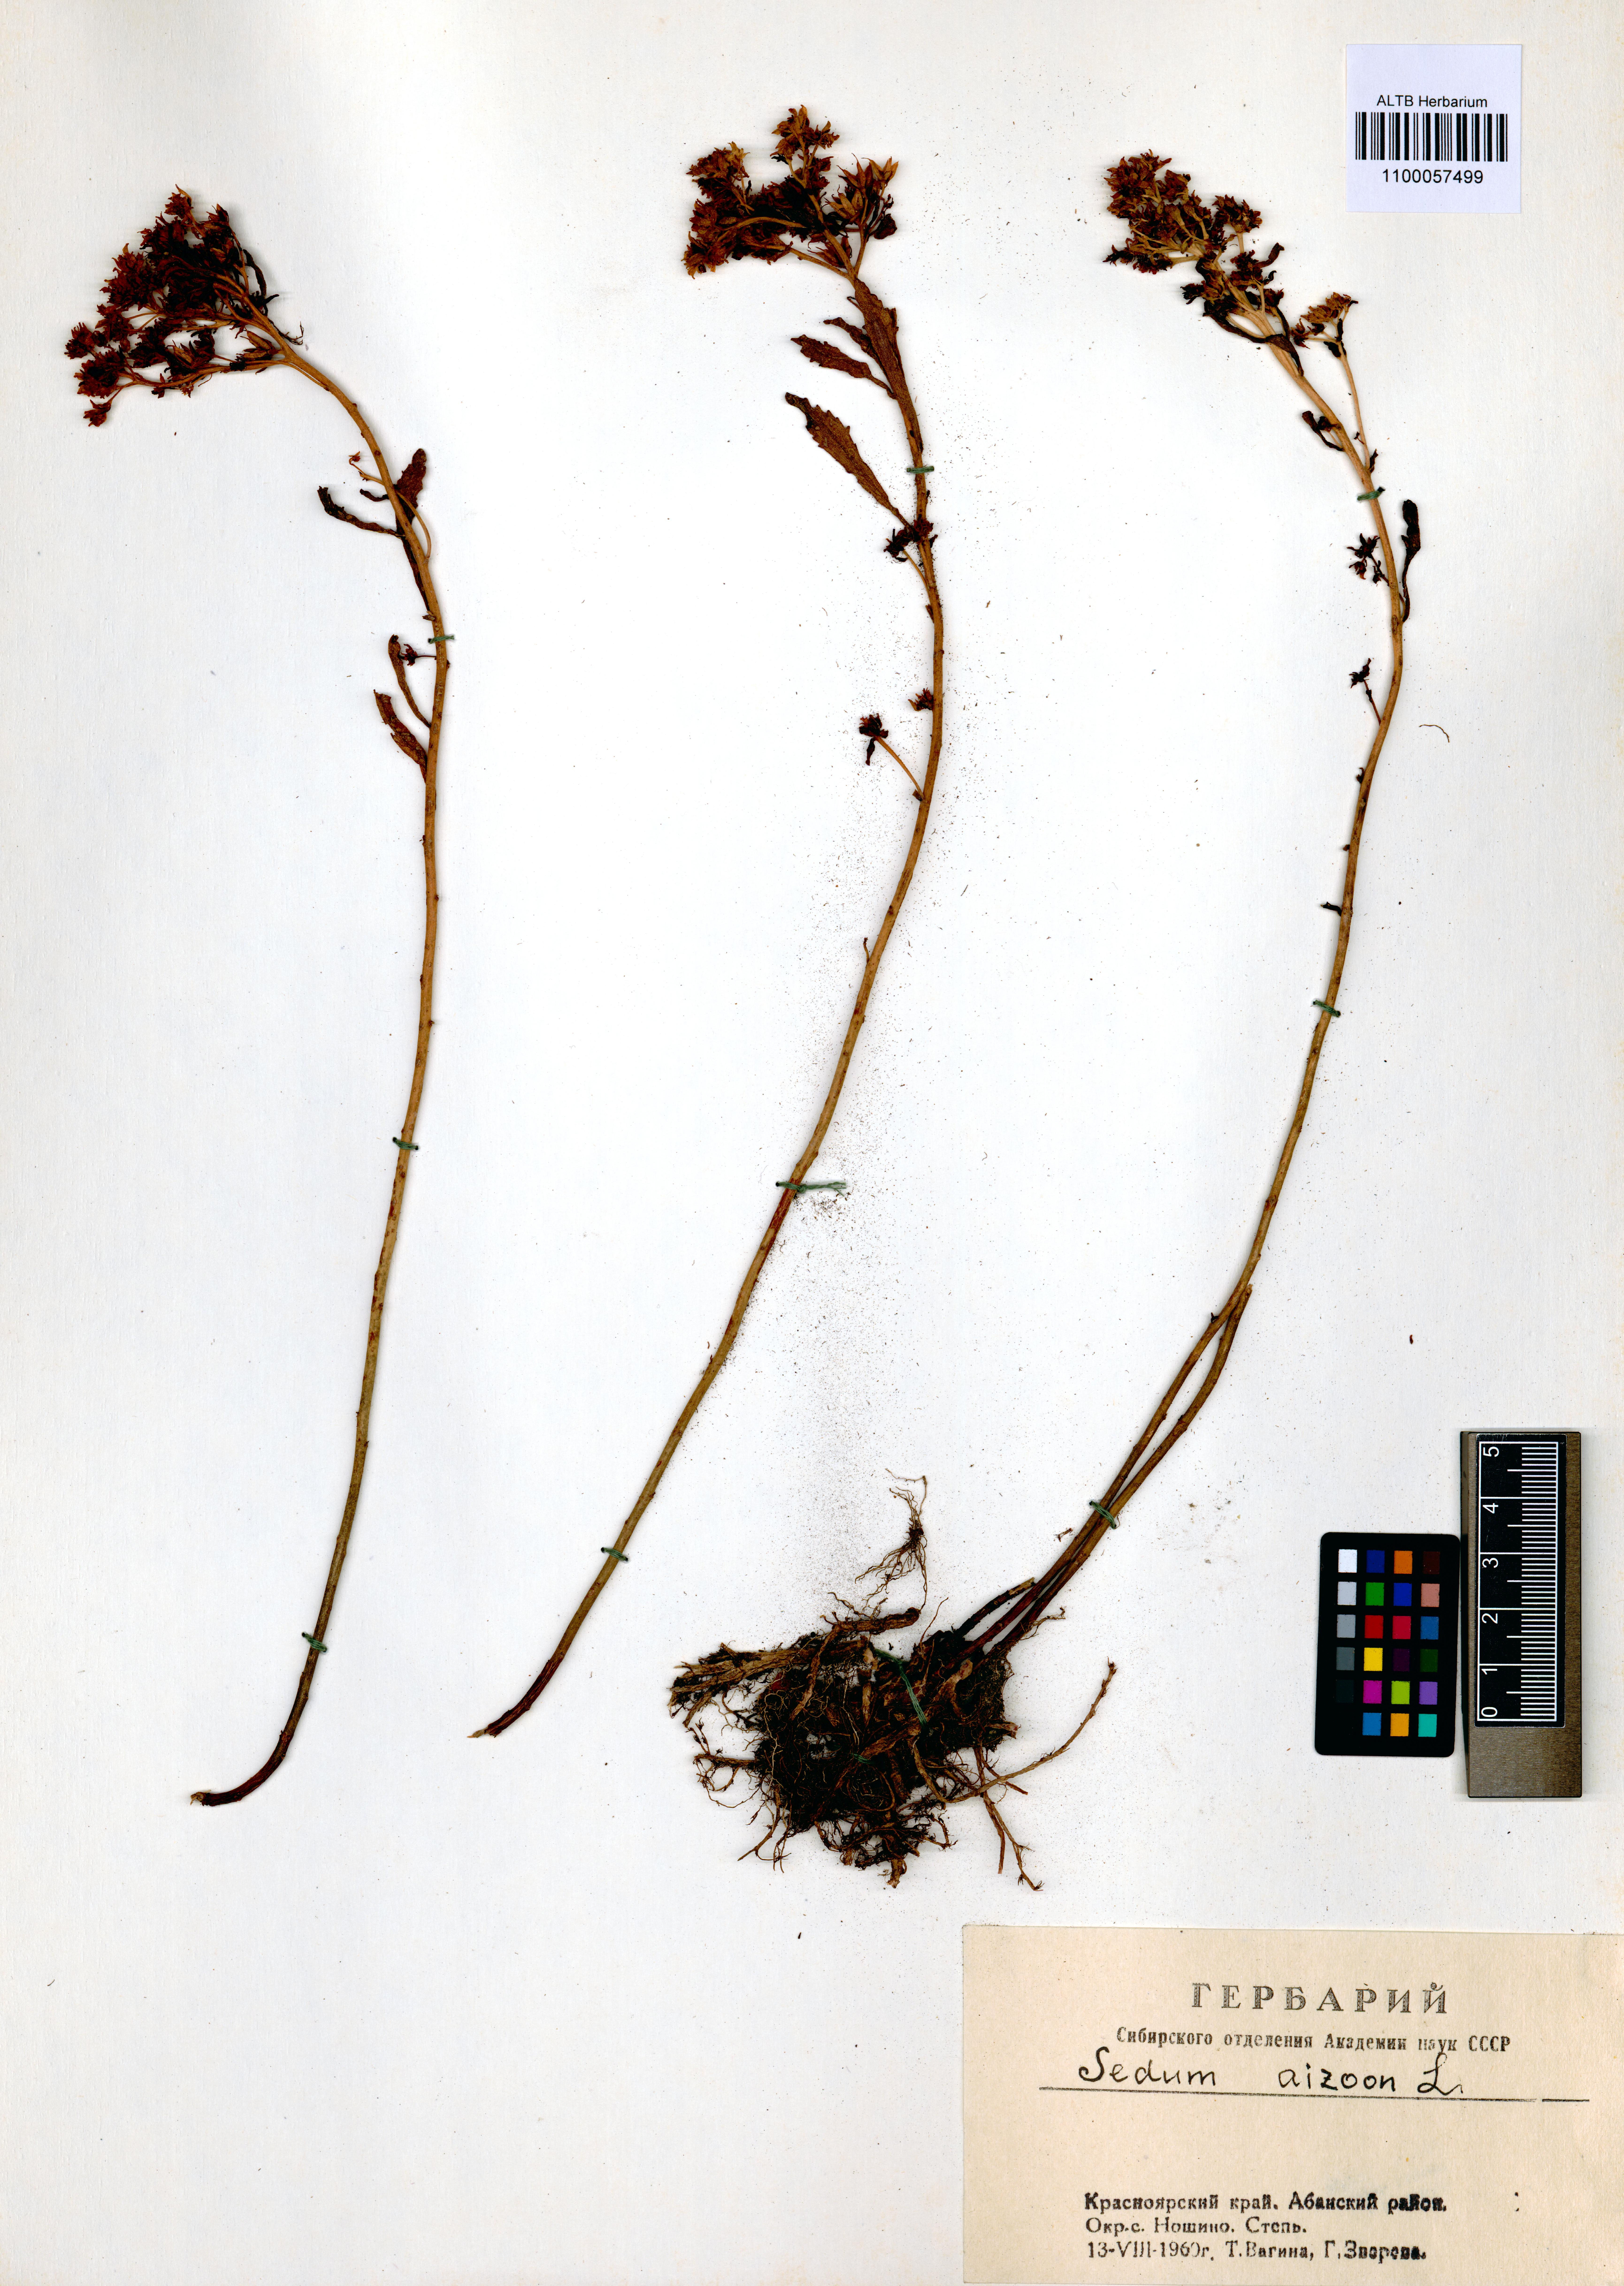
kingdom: Plantae
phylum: Tracheophyta
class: Magnoliopsida
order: Saxifragales
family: Crassulaceae
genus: Phedimus
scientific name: Phedimus aizoon
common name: Orpin aizoon
